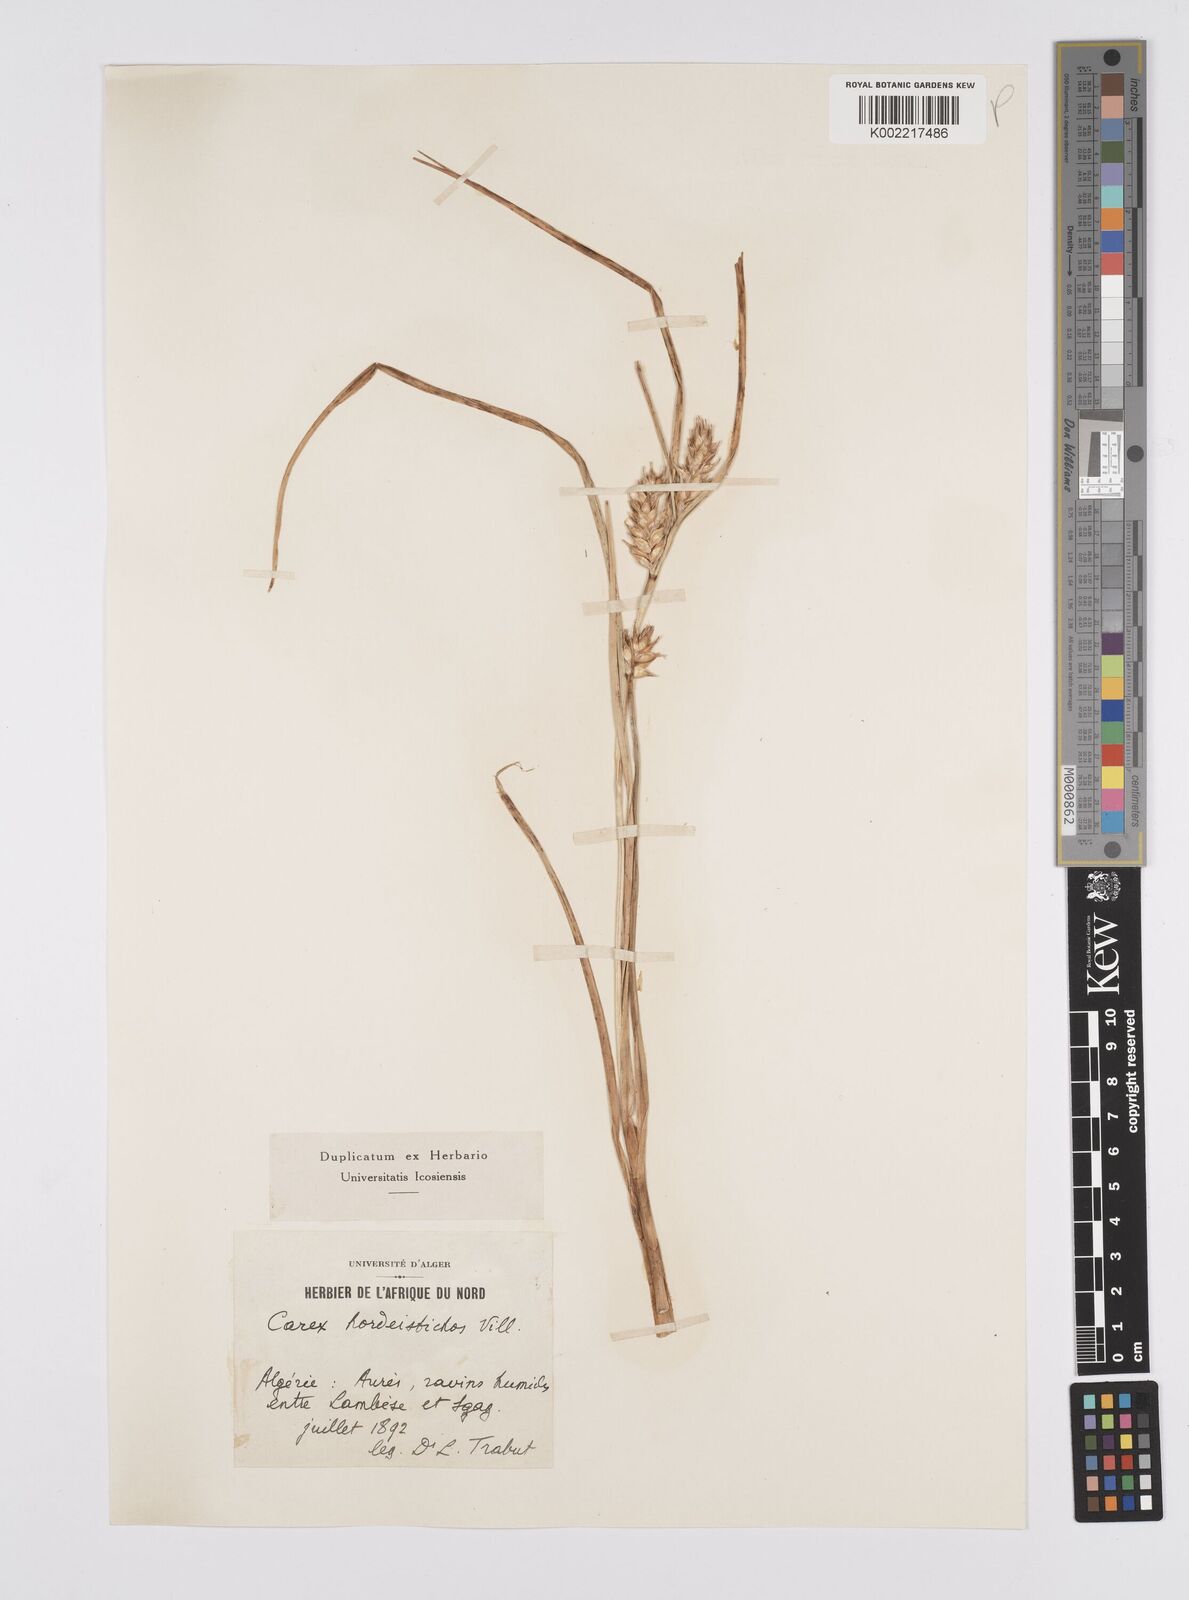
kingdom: Plantae
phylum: Tracheophyta
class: Liliopsida
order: Poales
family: Cyperaceae
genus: Carex
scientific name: Carex hordeistichos
